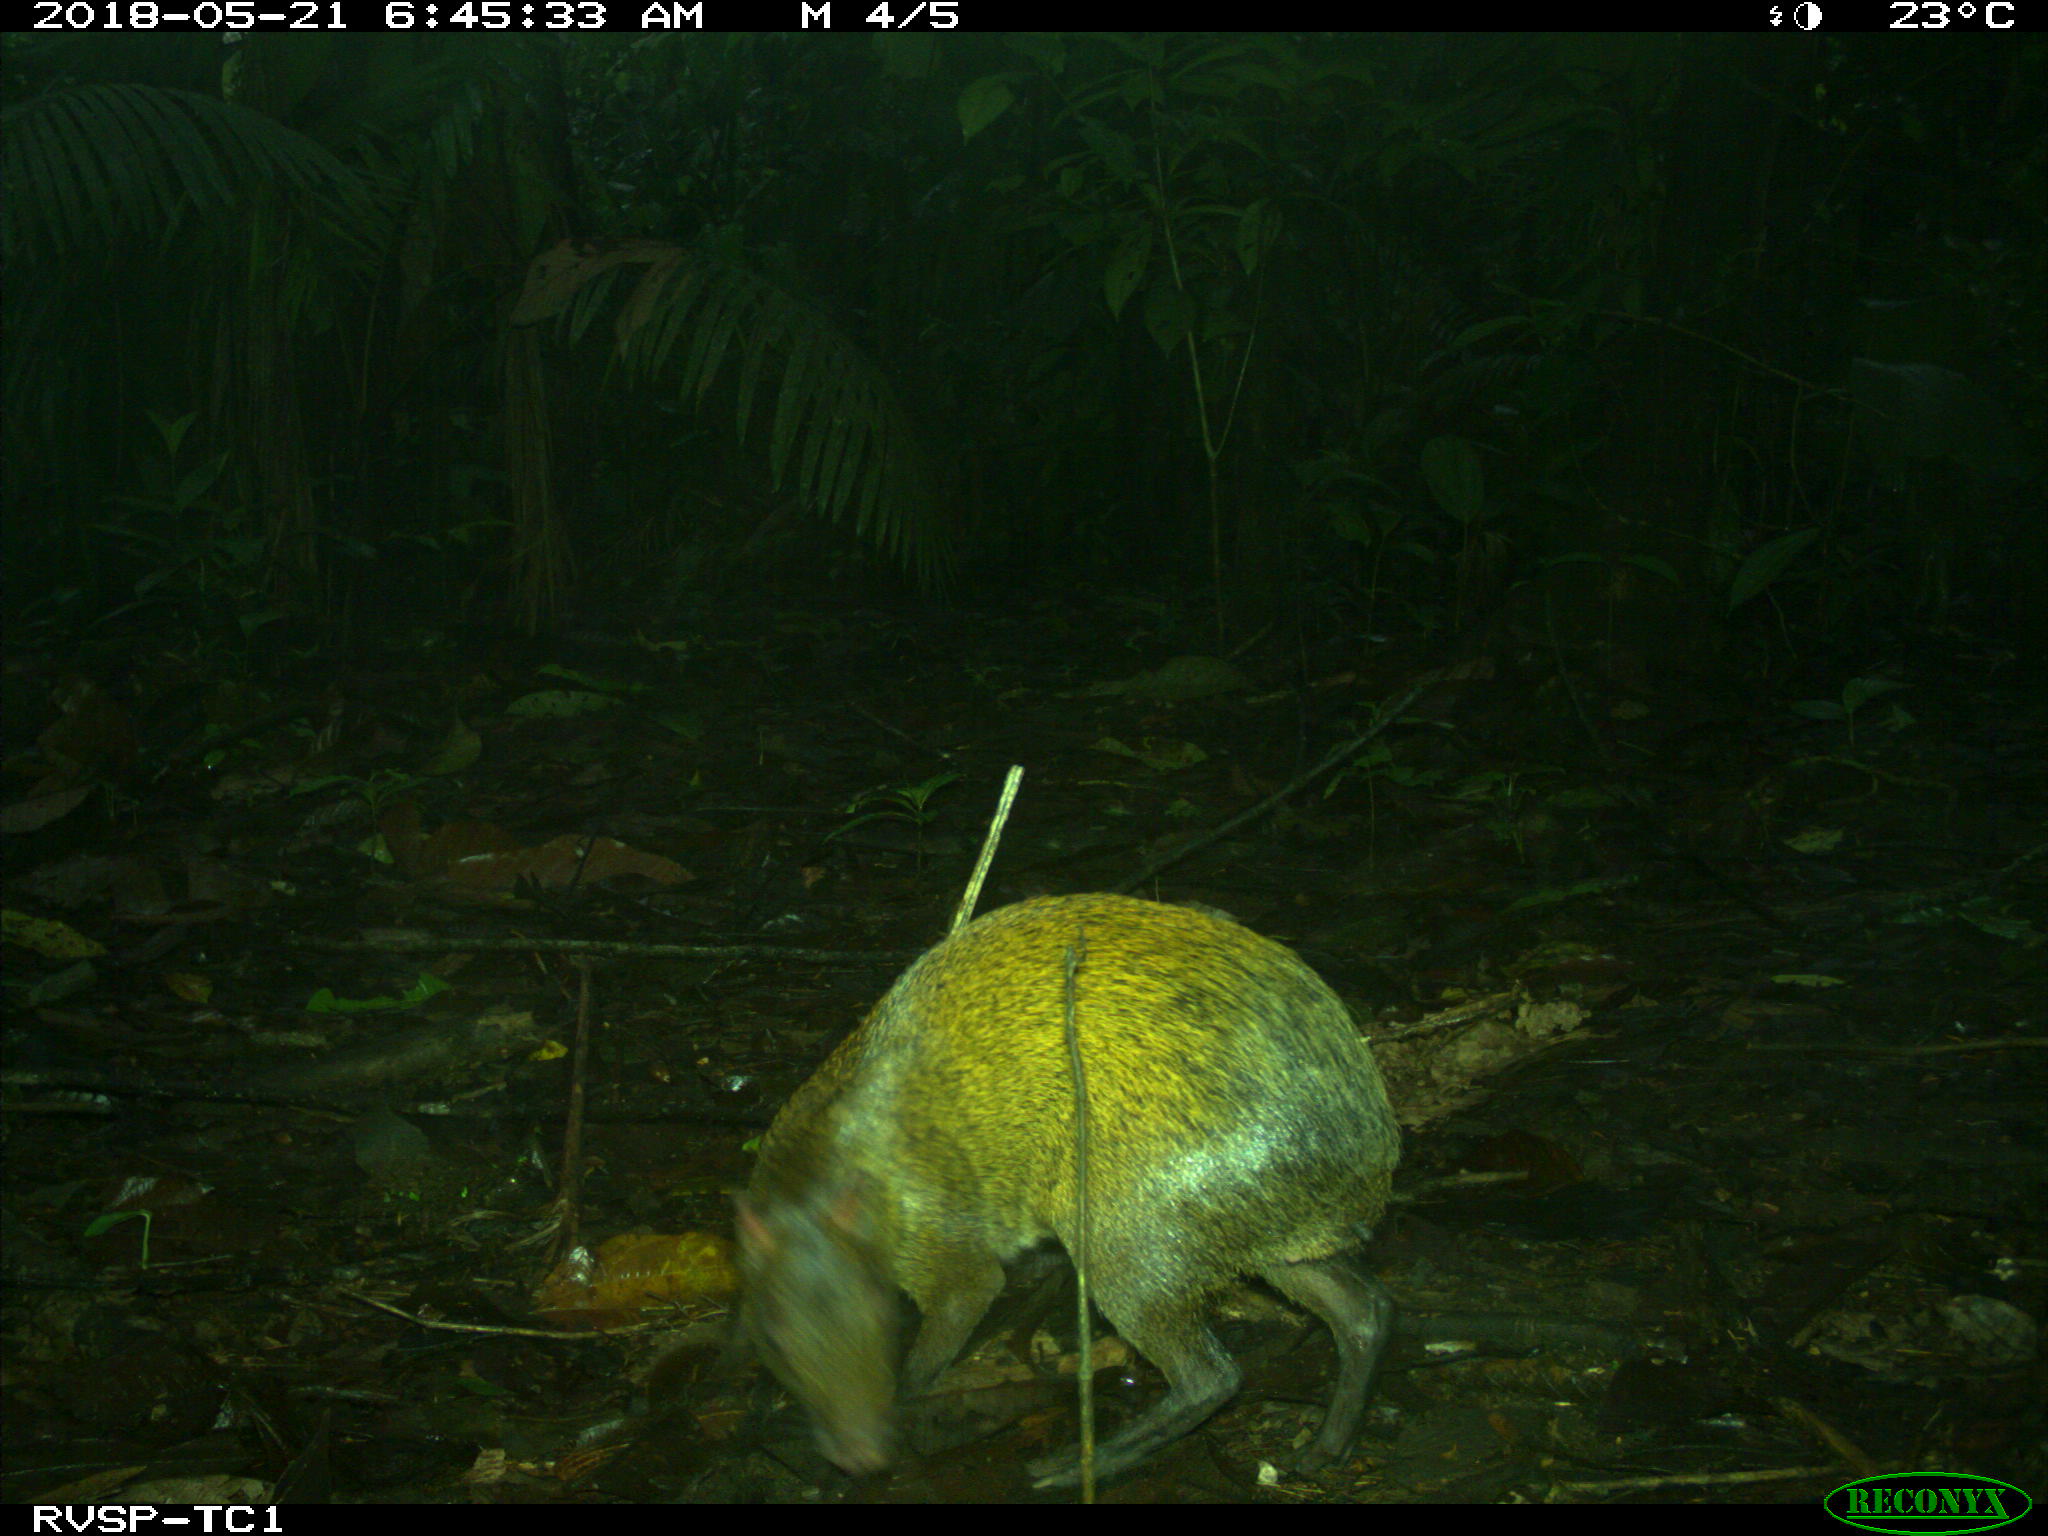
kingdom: Animalia
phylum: Chordata
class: Mammalia
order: Rodentia
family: Dasyproctidae
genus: Dasyprocta
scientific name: Dasyprocta punctata
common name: Central american agouti
